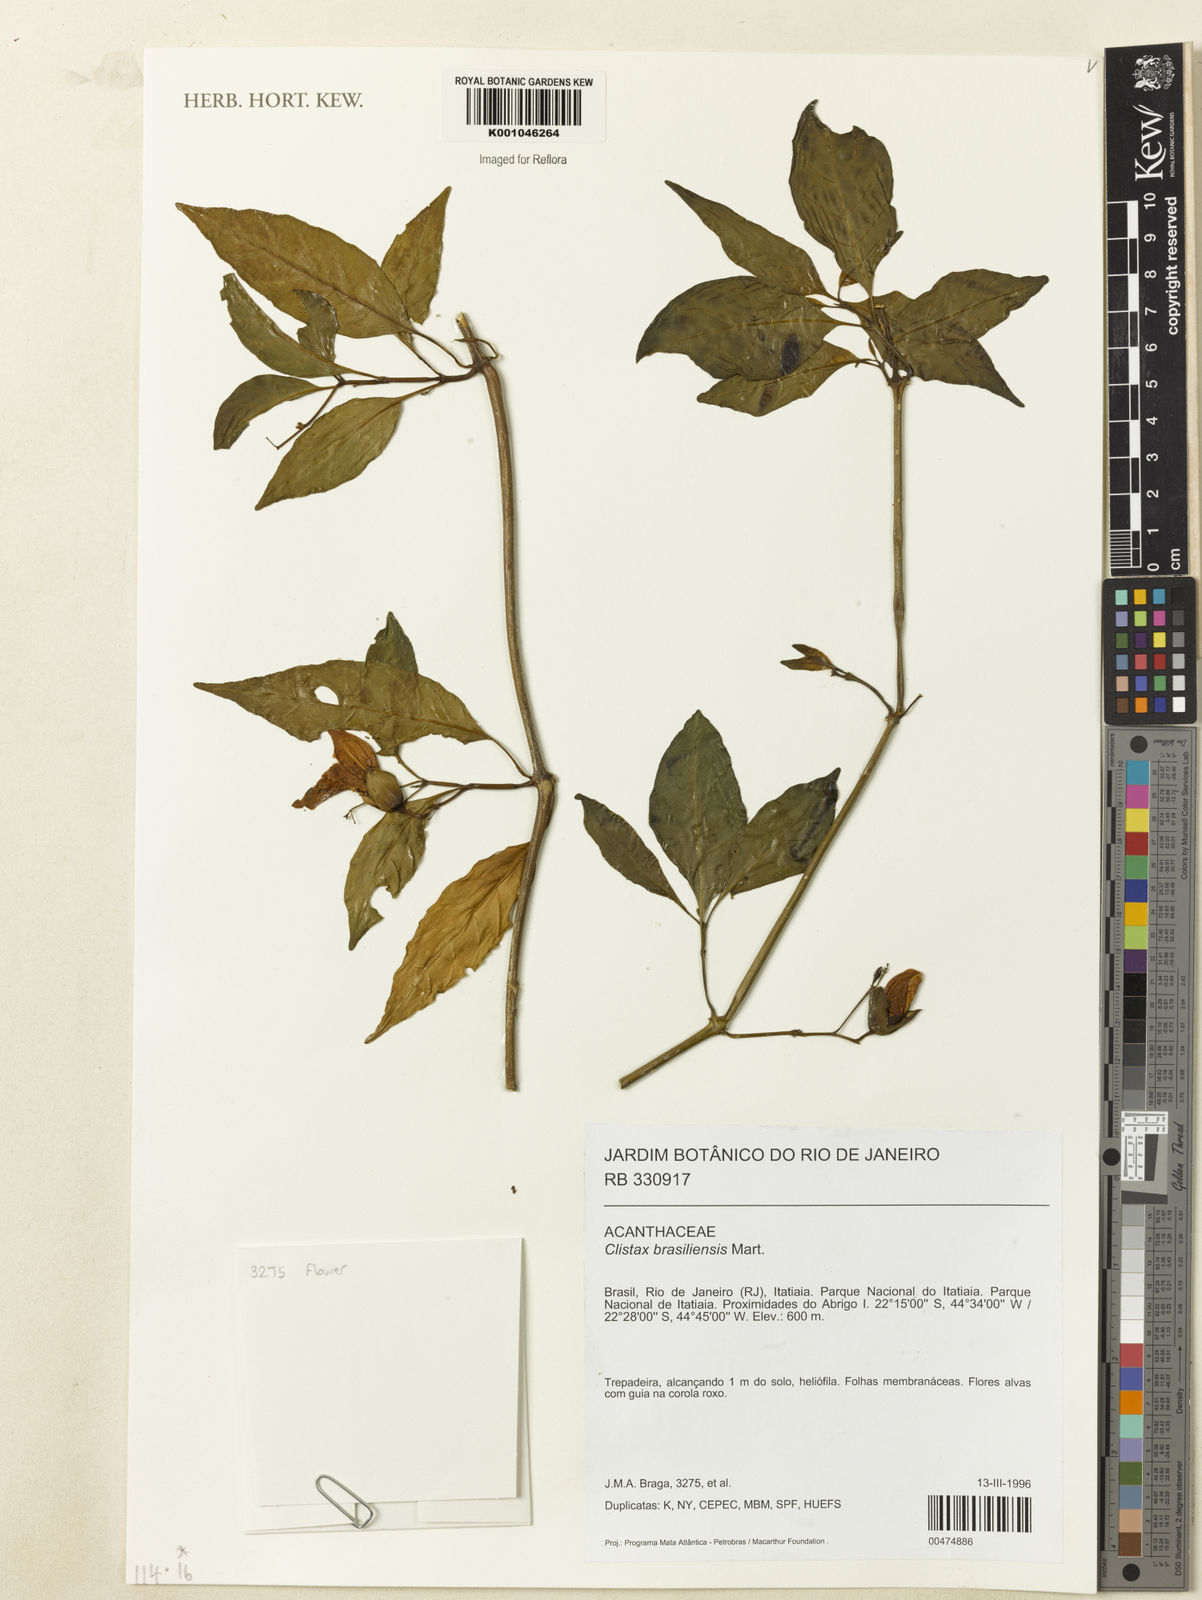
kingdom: Plantae
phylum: Tracheophyta
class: Magnoliopsida
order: Lamiales
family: Acanthaceae
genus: Clistax
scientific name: Clistax brasiliensis
